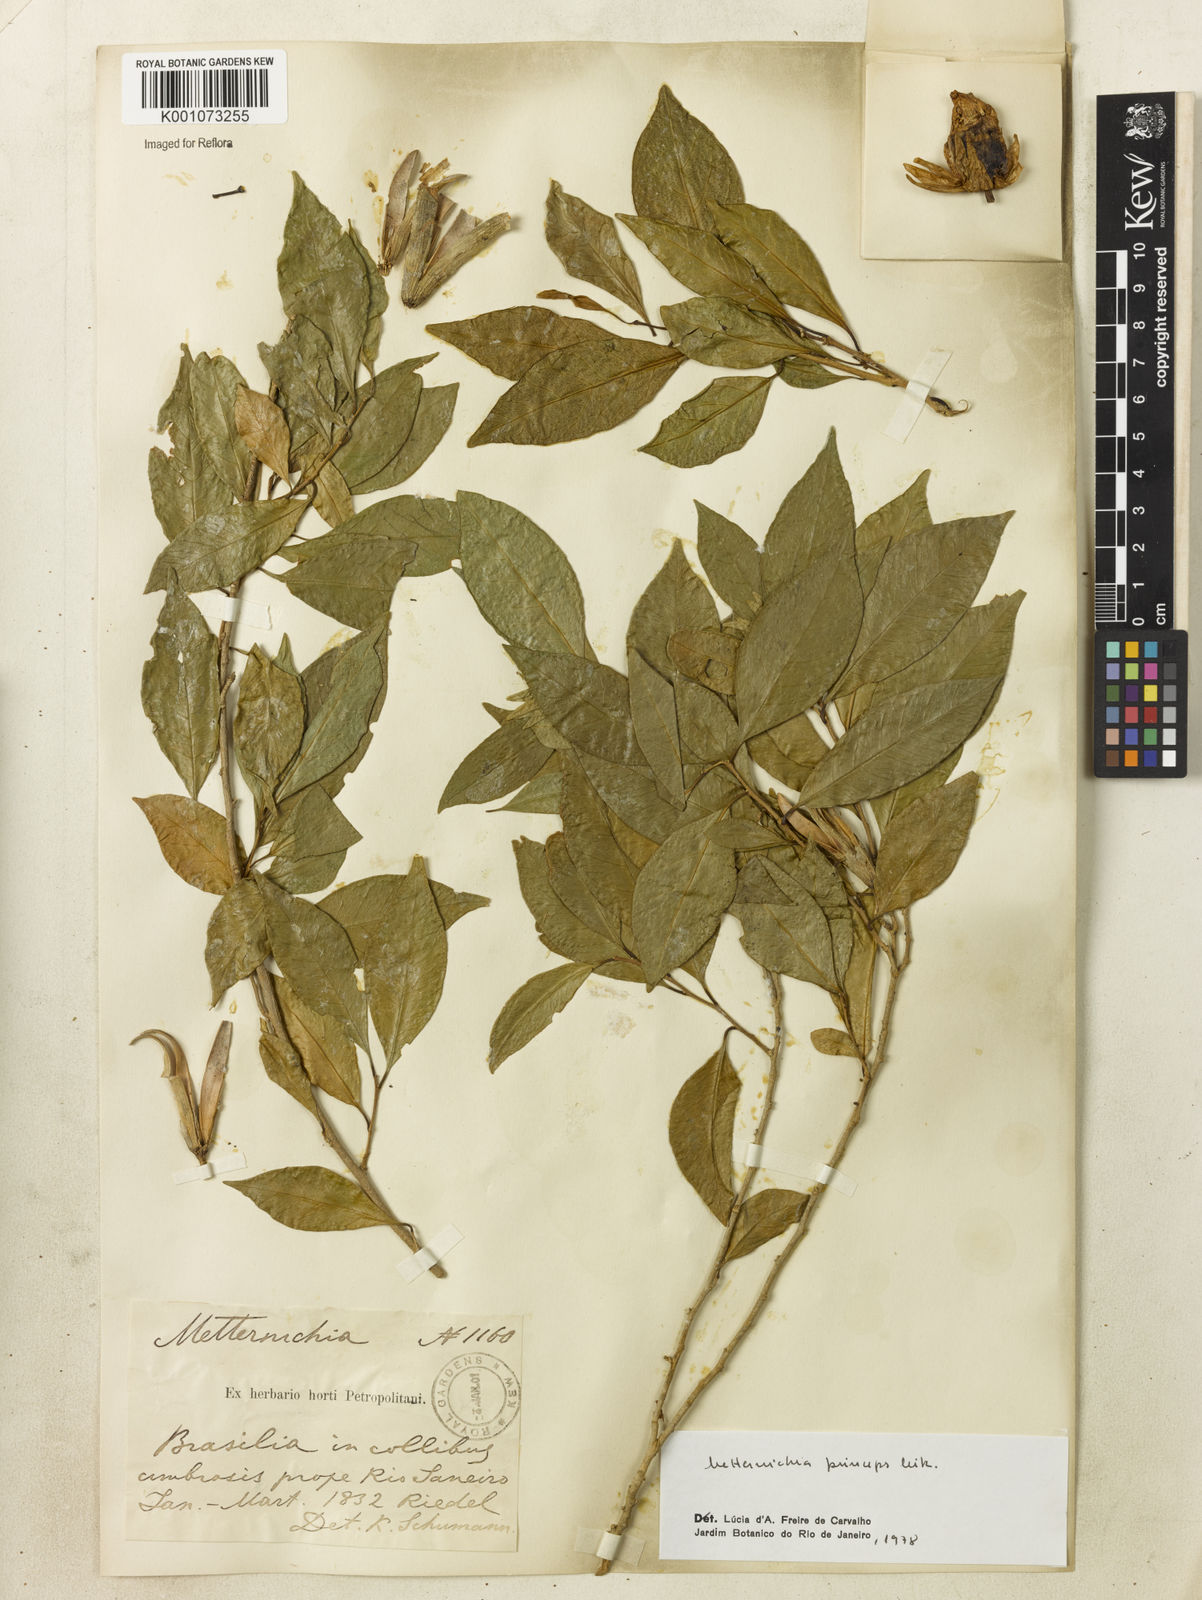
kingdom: Plantae
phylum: Tracheophyta
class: Magnoliopsida
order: Solanales
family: Solanaceae
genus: Metternichia
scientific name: Metternichia
